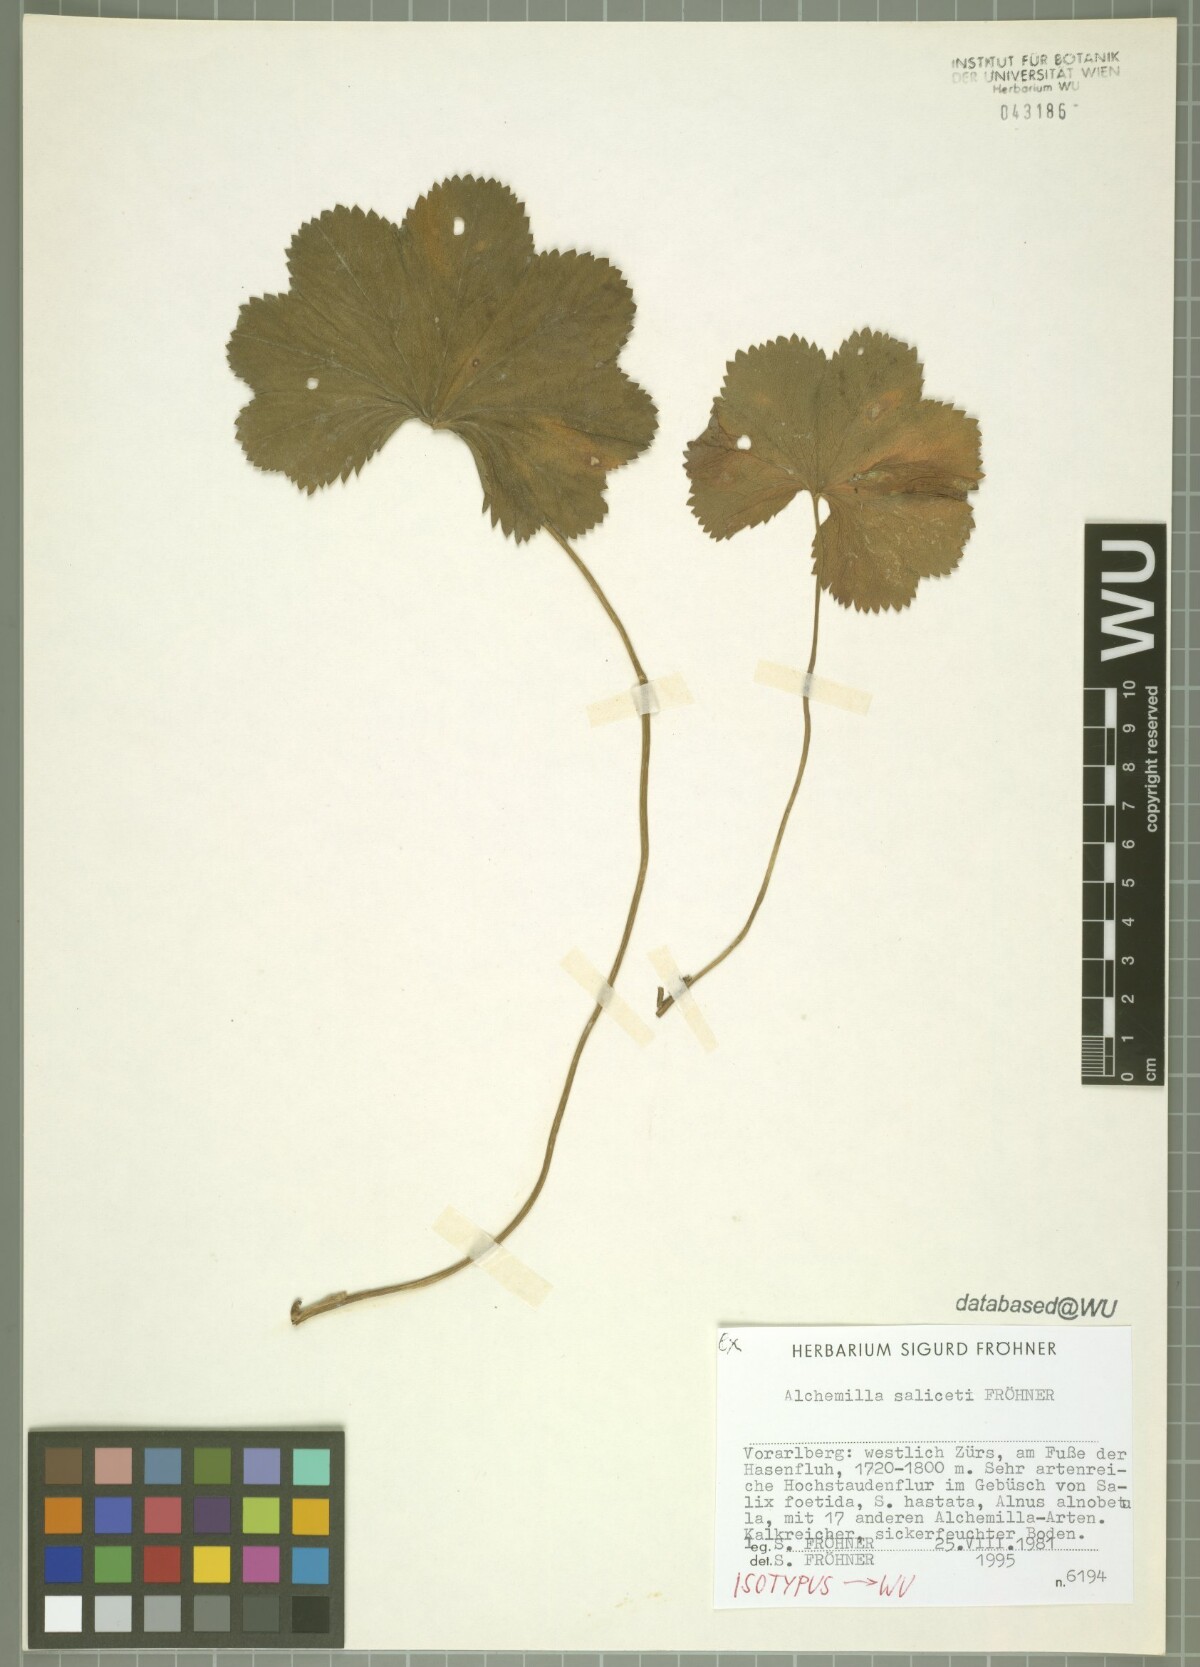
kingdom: Plantae
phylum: Tracheophyta
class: Magnoliopsida
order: Rosales
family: Rosaceae
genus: Alchemilla
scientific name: Alchemilla saliceti
